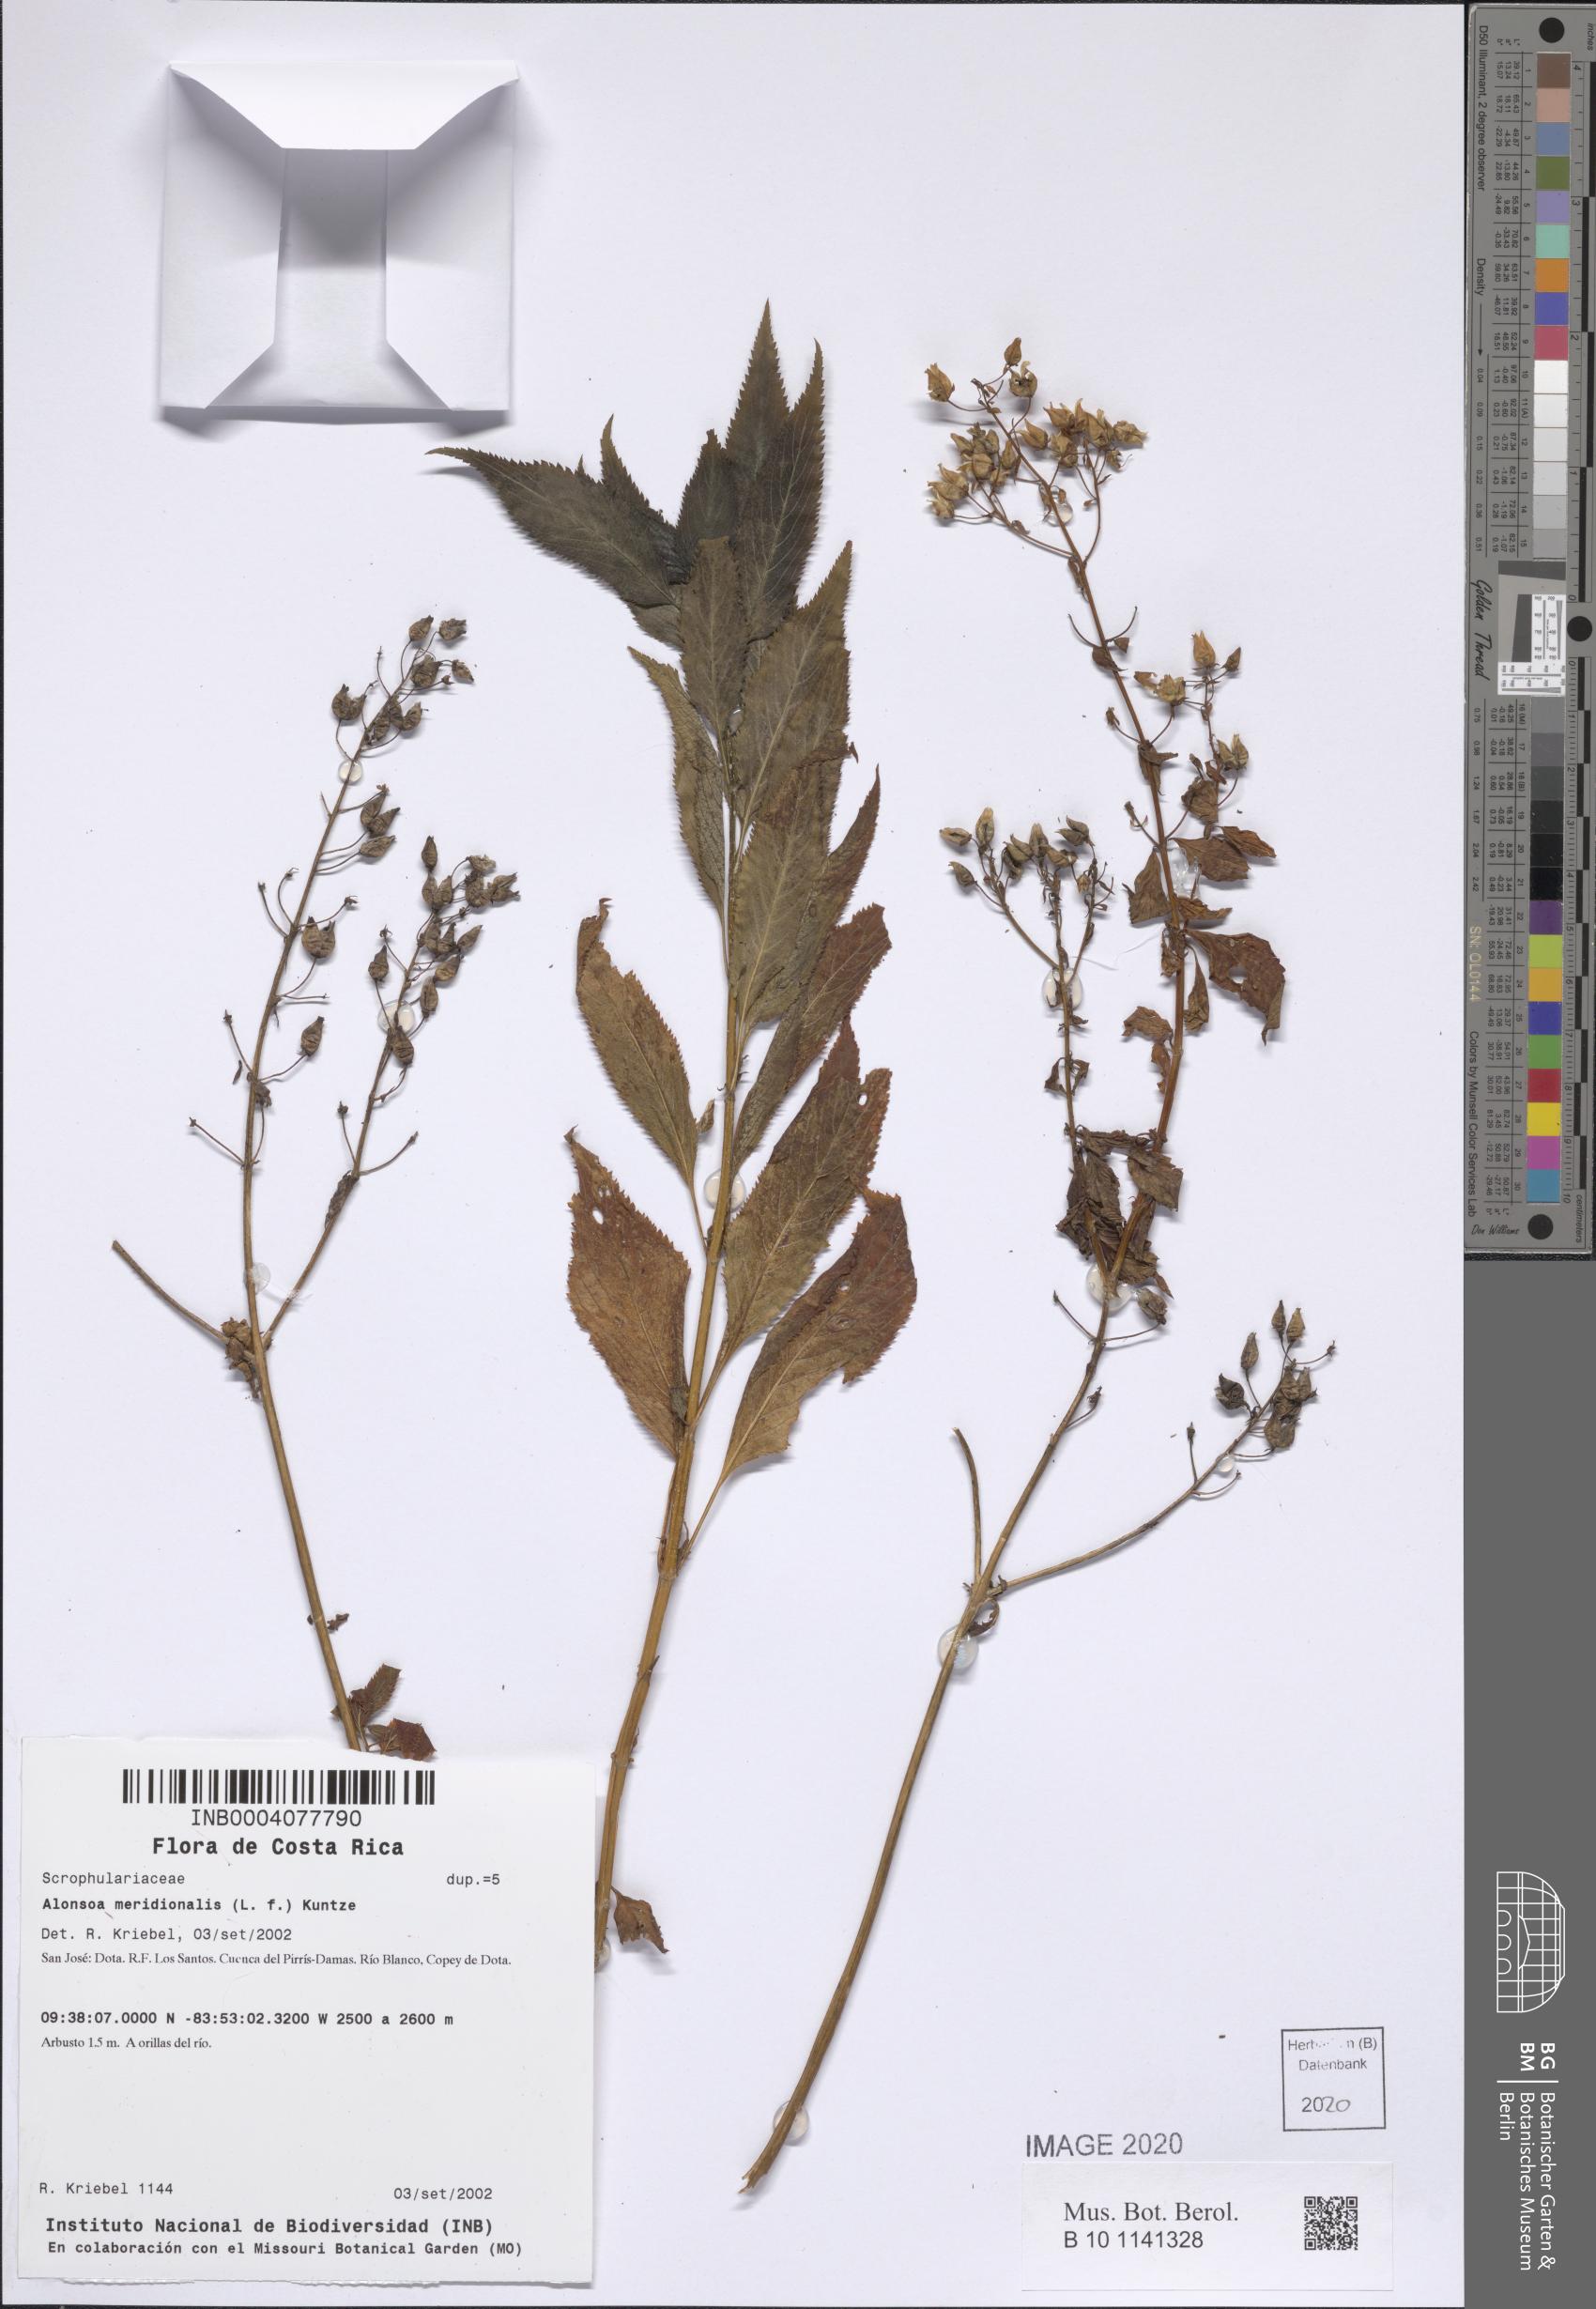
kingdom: Plantae
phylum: Tracheophyta
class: Magnoliopsida
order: Lamiales
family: Scrophulariaceae
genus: Alonsoa
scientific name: Alonsoa meridionalis
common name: Maskflower
